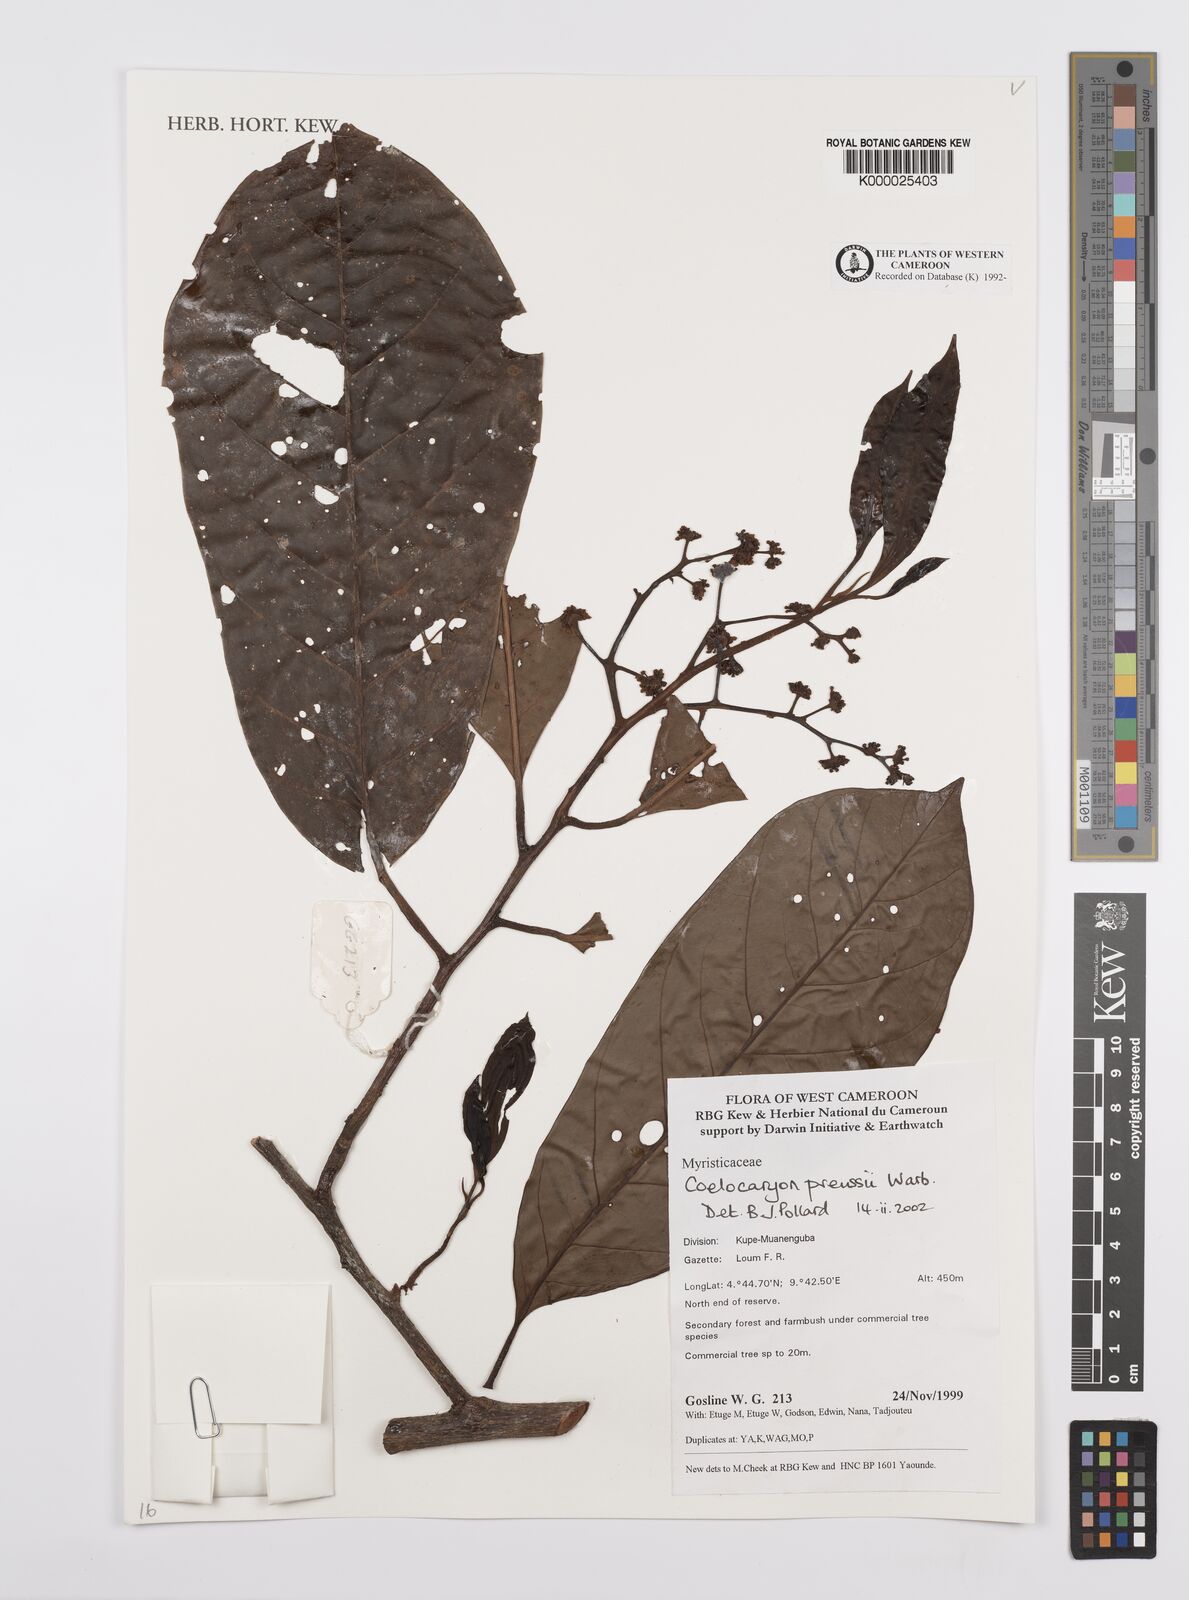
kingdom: Plantae
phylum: Tracheophyta
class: Magnoliopsida
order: Magnoliales
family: Myristicaceae
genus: Coelocaryon
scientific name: Coelocaryon preussii
